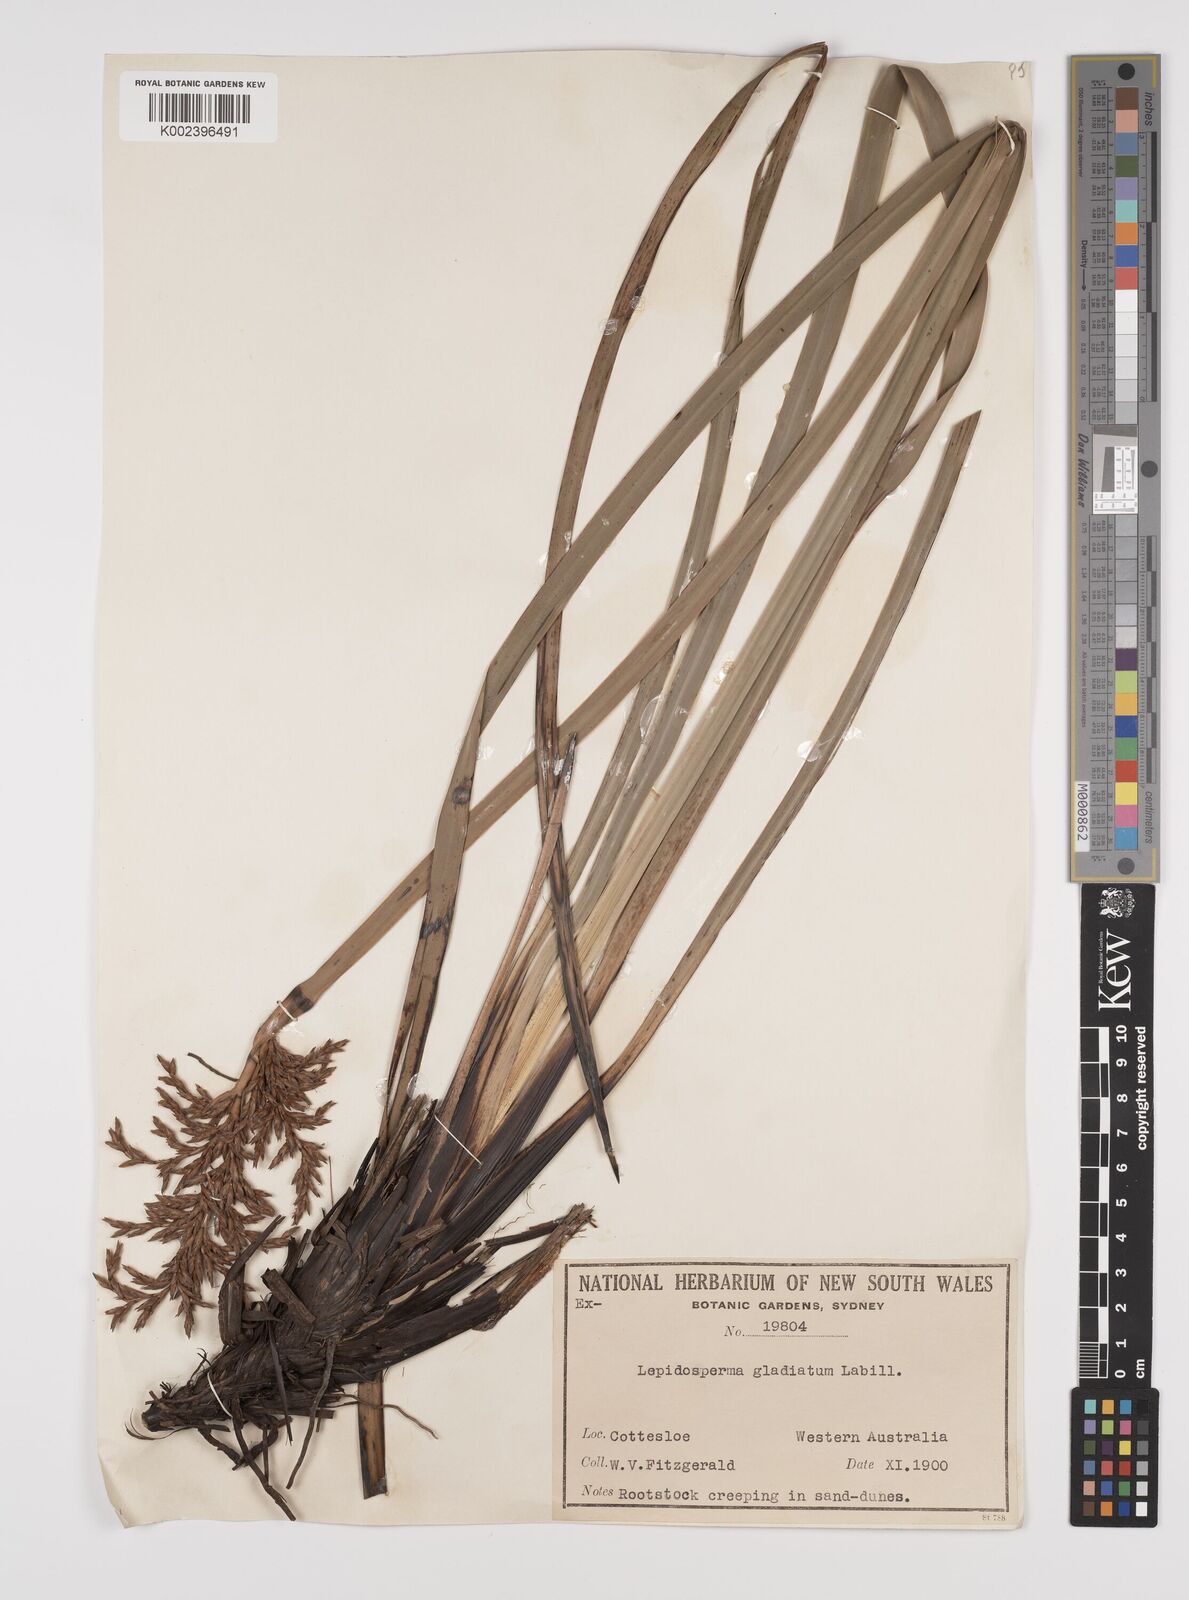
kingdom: Plantae
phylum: Tracheophyta
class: Liliopsida
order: Poales
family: Cyperaceae
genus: Lepidosperma
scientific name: Lepidosperma gladiatum
